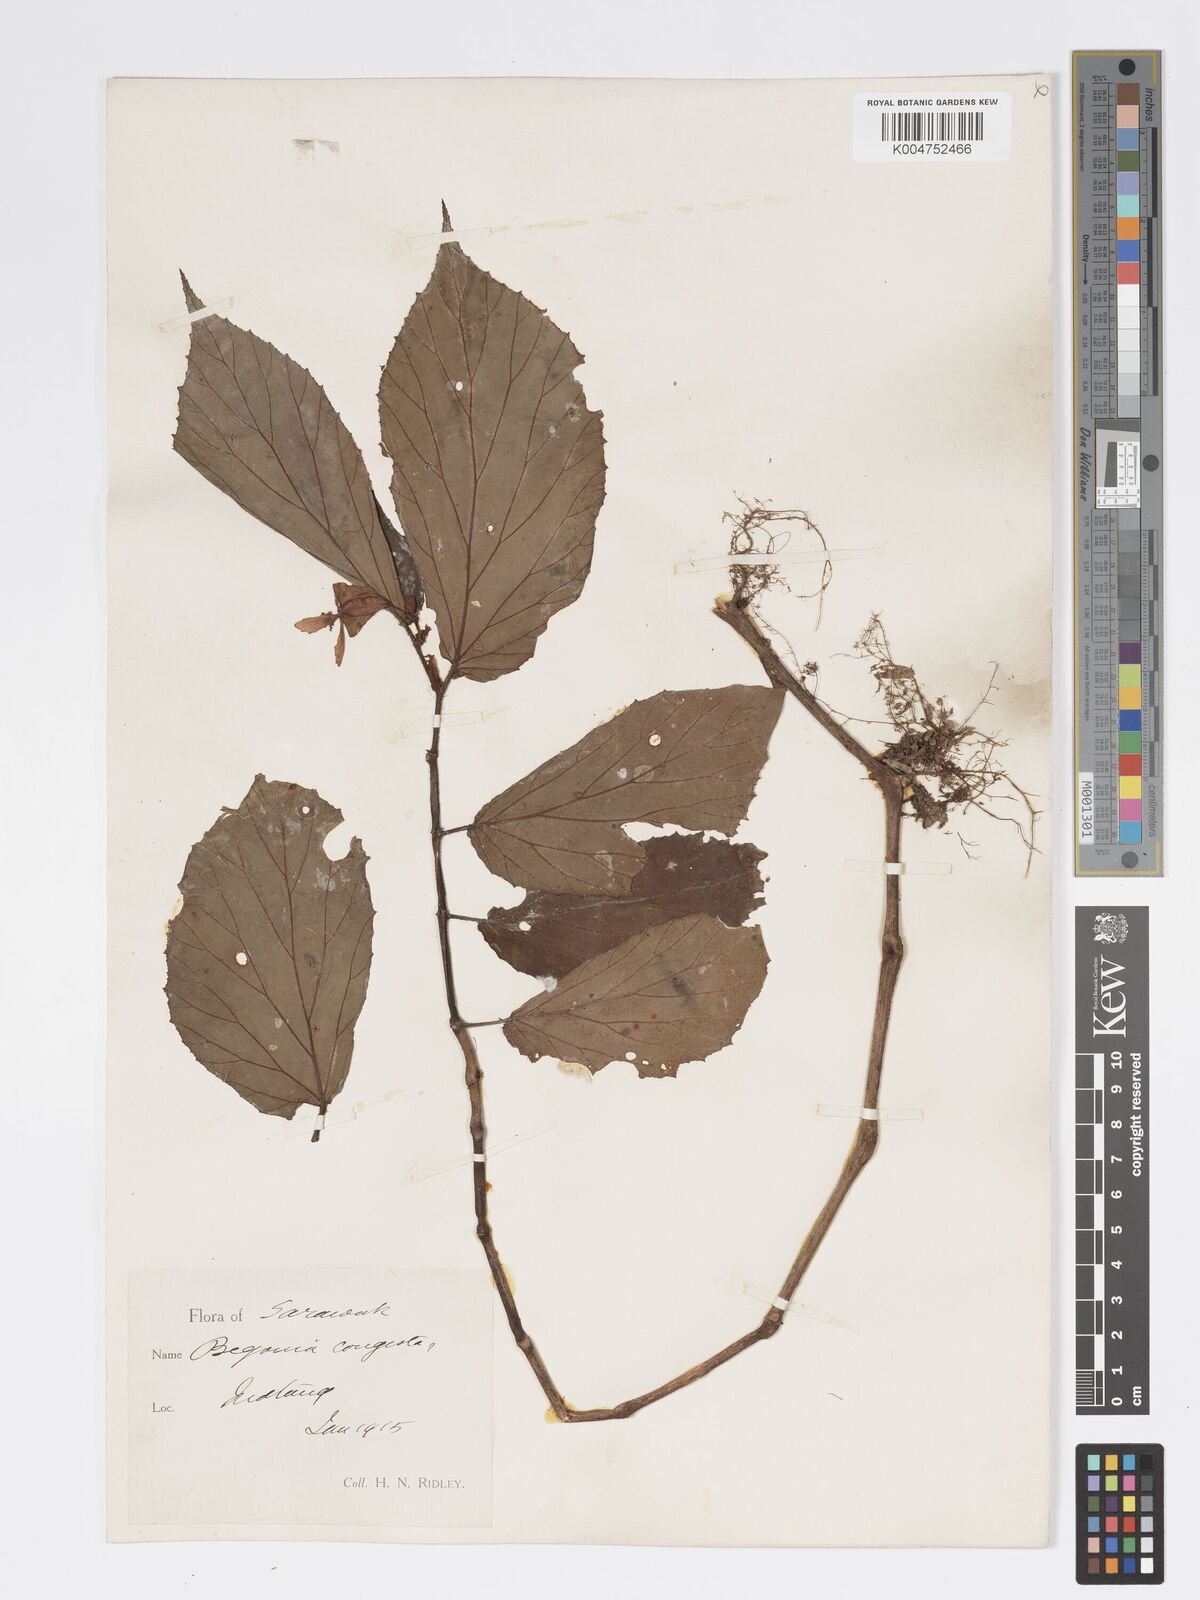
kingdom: Plantae
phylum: Tracheophyta
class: Magnoliopsida
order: Cucurbitales
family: Begoniaceae
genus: Begonia
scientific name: Begonia matangensis
